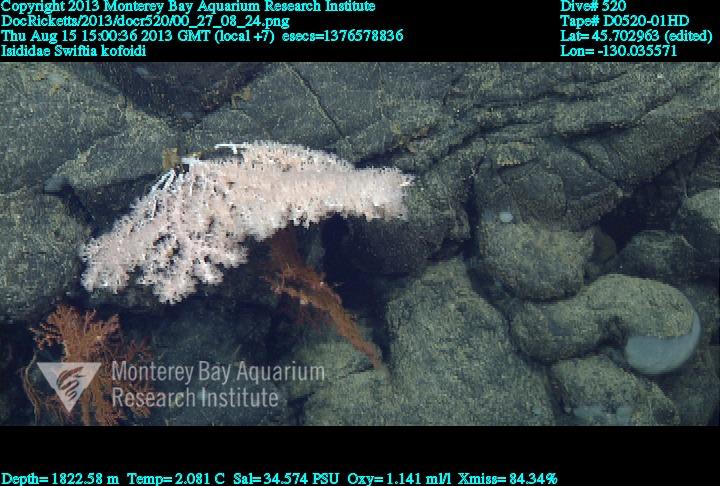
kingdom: Animalia
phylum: Cnidaria
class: Anthozoa
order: Malacalcyonacea
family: Gorgoniidae
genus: Callistephanus
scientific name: Callistephanus kofoidi
